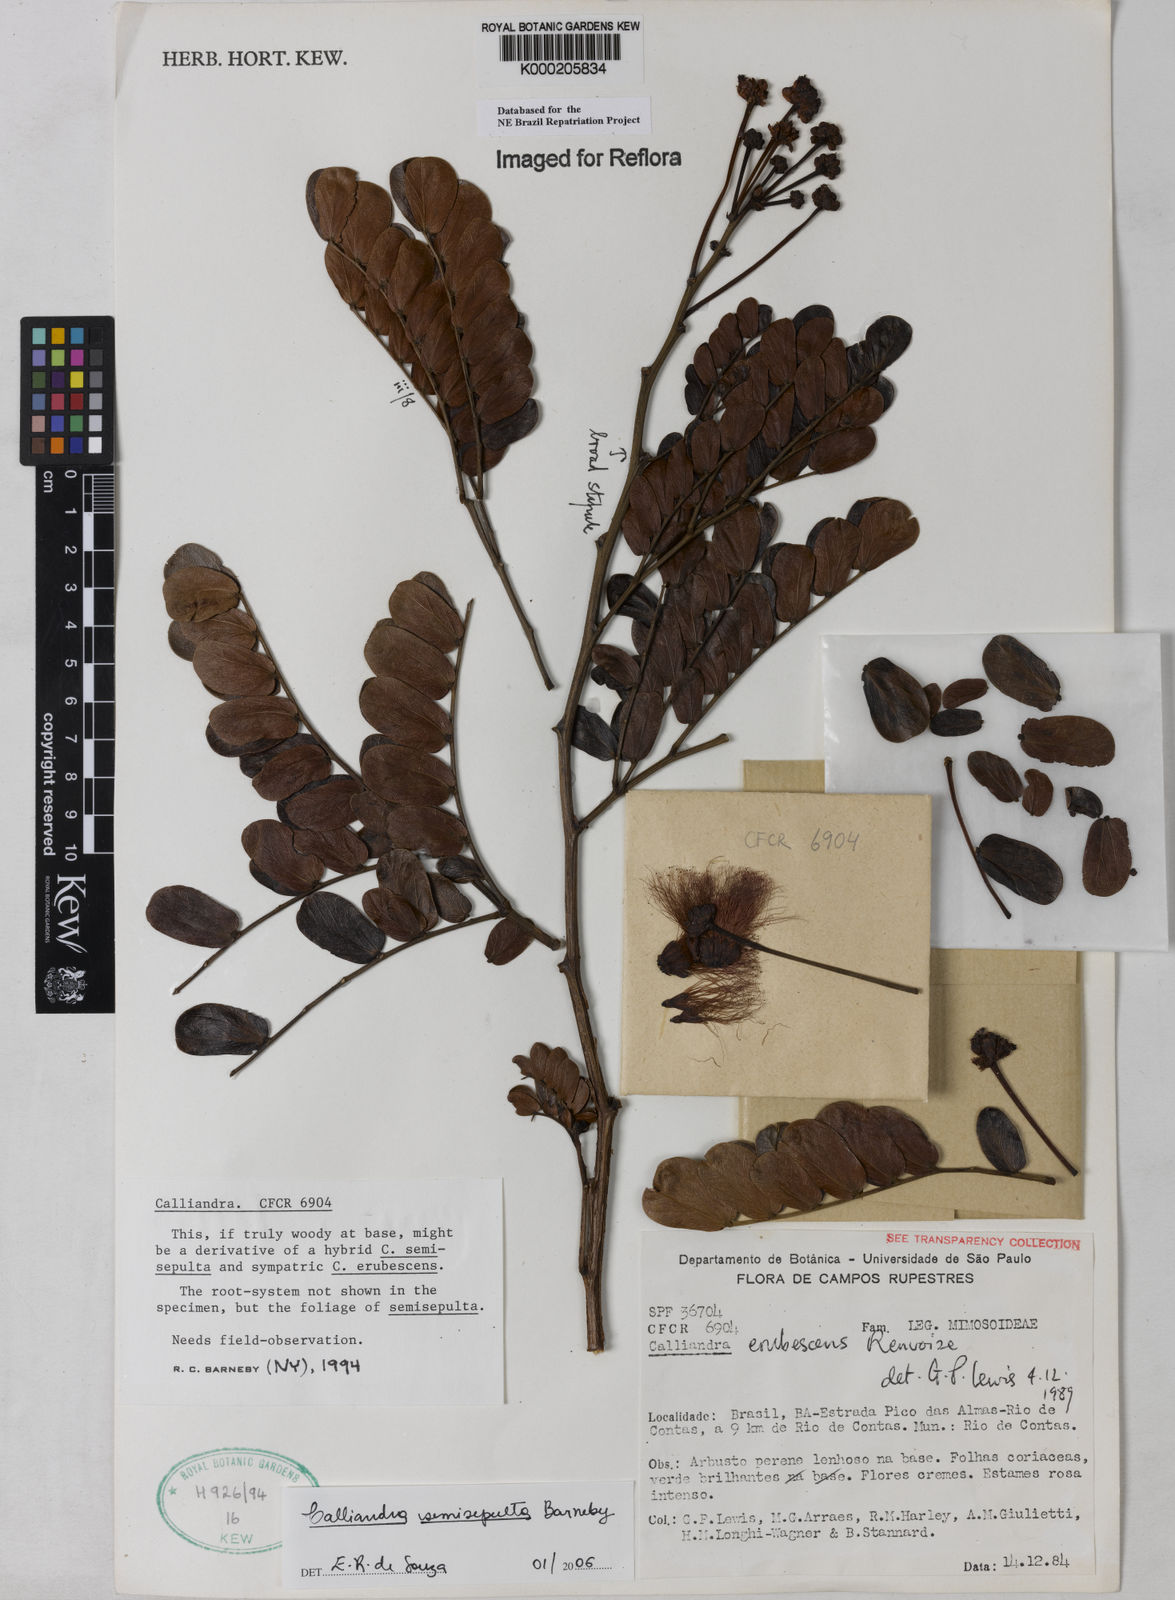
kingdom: Plantae
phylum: Tracheophyta
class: Magnoliopsida
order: Fabales
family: Fabaceae
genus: Calliandra
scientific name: Calliandra erubescens
